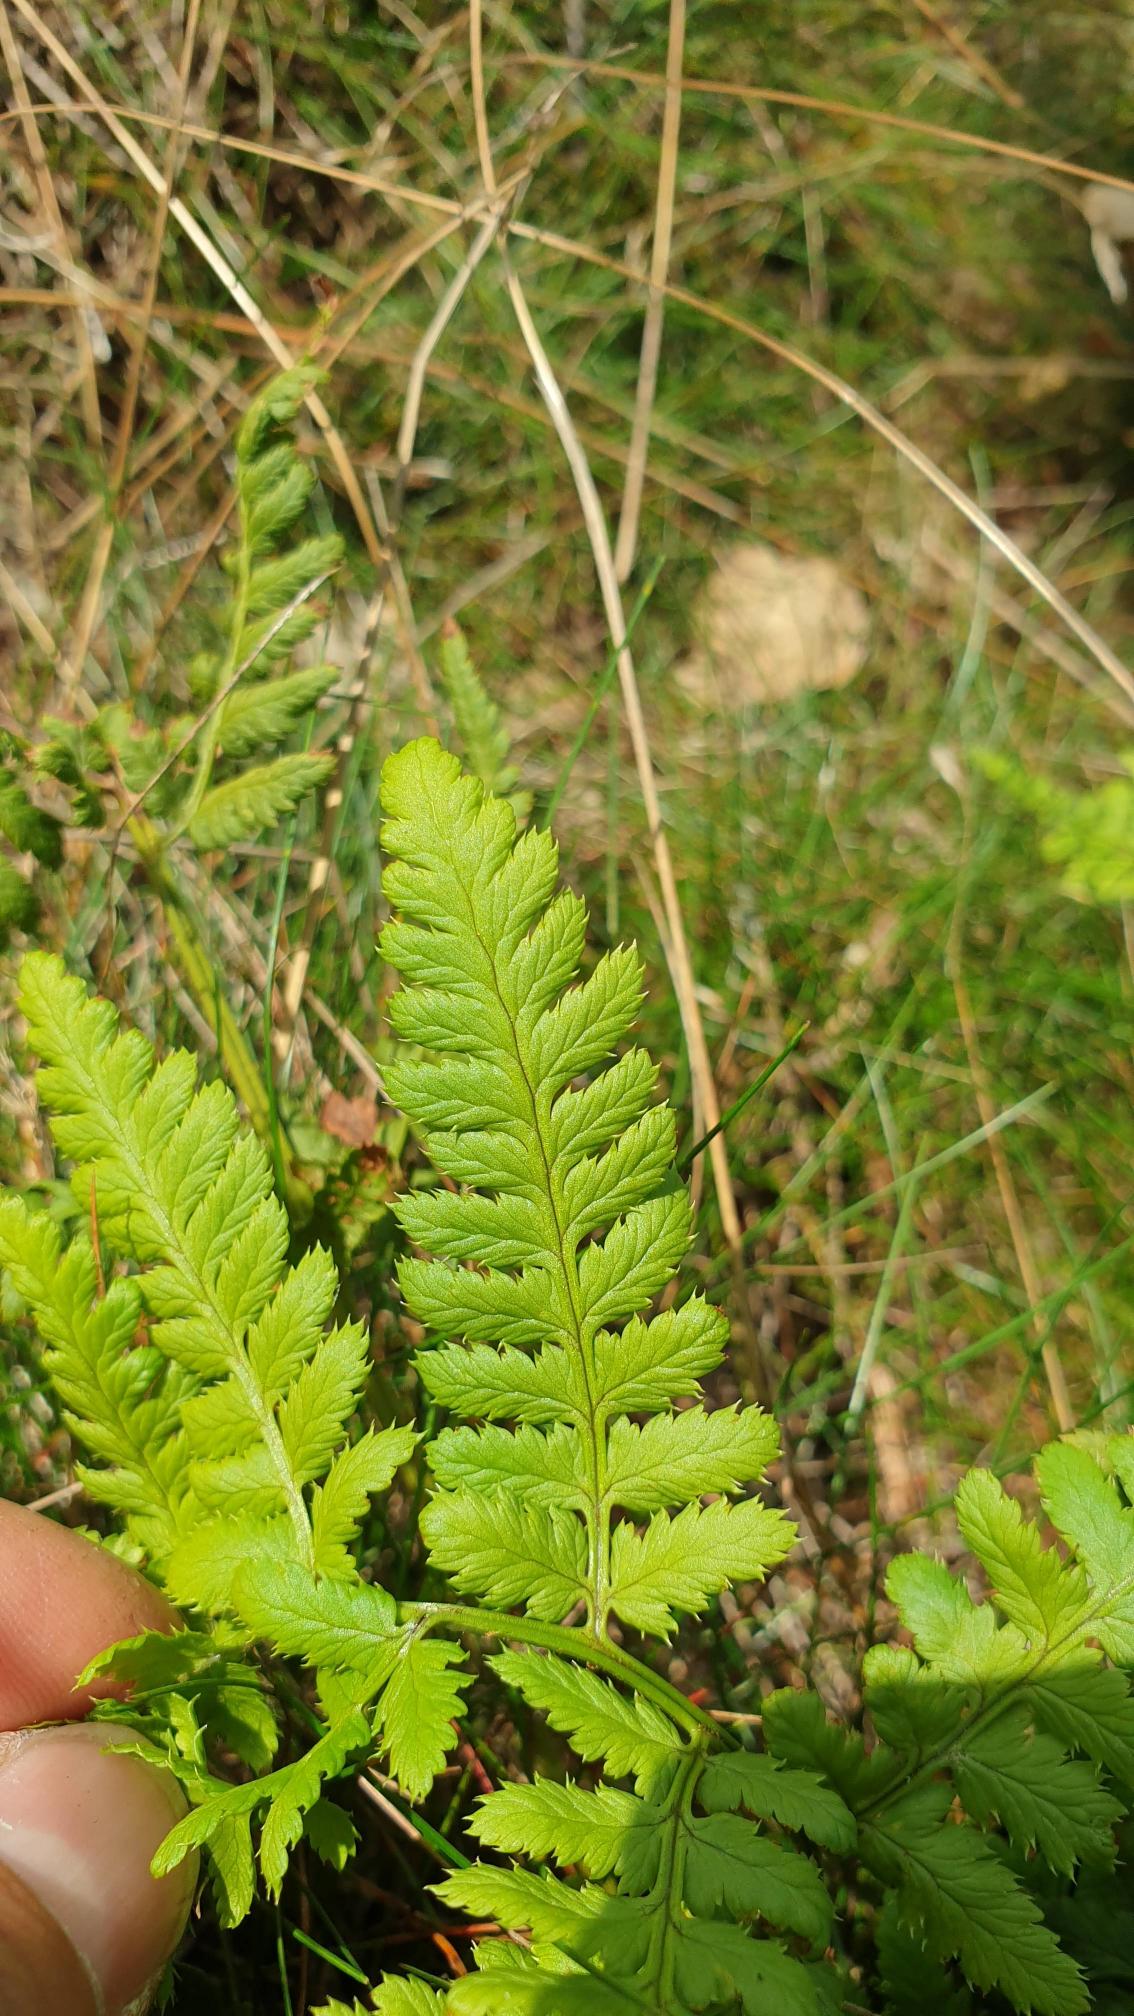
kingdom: Plantae
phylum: Tracheophyta
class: Polypodiopsida
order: Polypodiales
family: Dryopteridaceae
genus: Dryopteris
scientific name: Dryopteris carthusiana
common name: Smalbladet mangeløv
